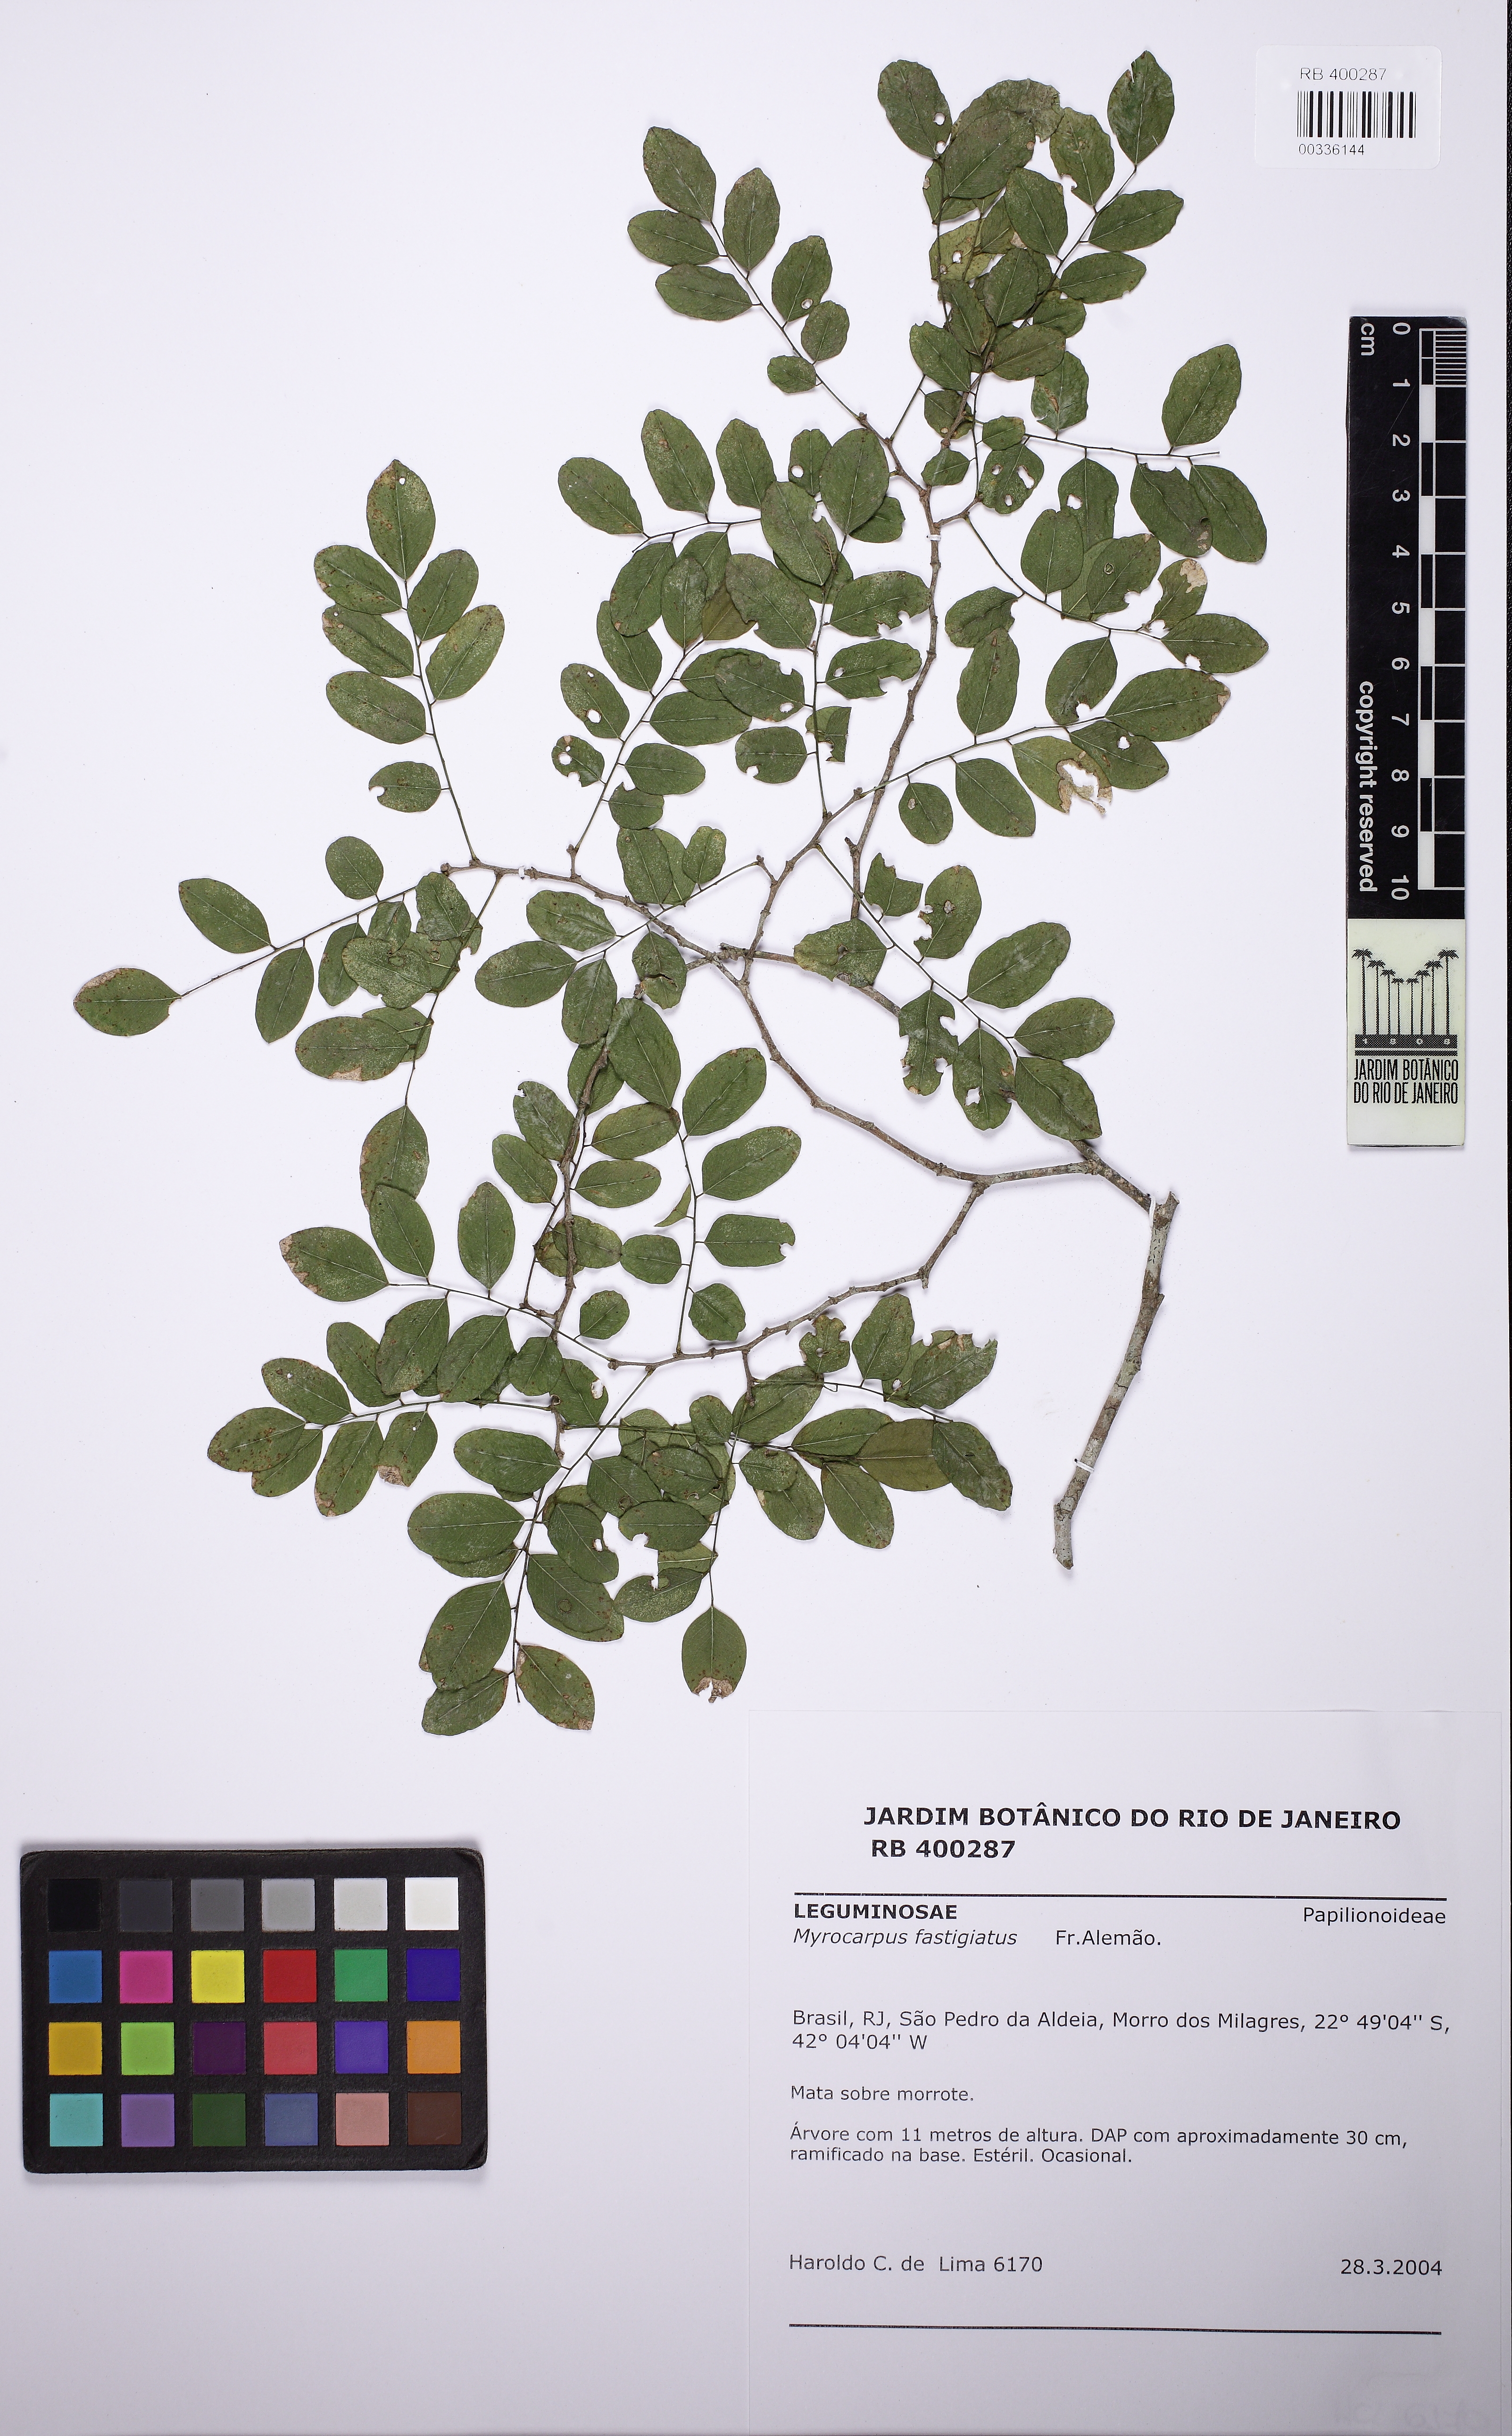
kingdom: Plantae
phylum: Tracheophyta
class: Magnoliopsida
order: Fabales
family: Fabaceae
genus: Myrocarpus
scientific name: Myrocarpus fastigiatus
